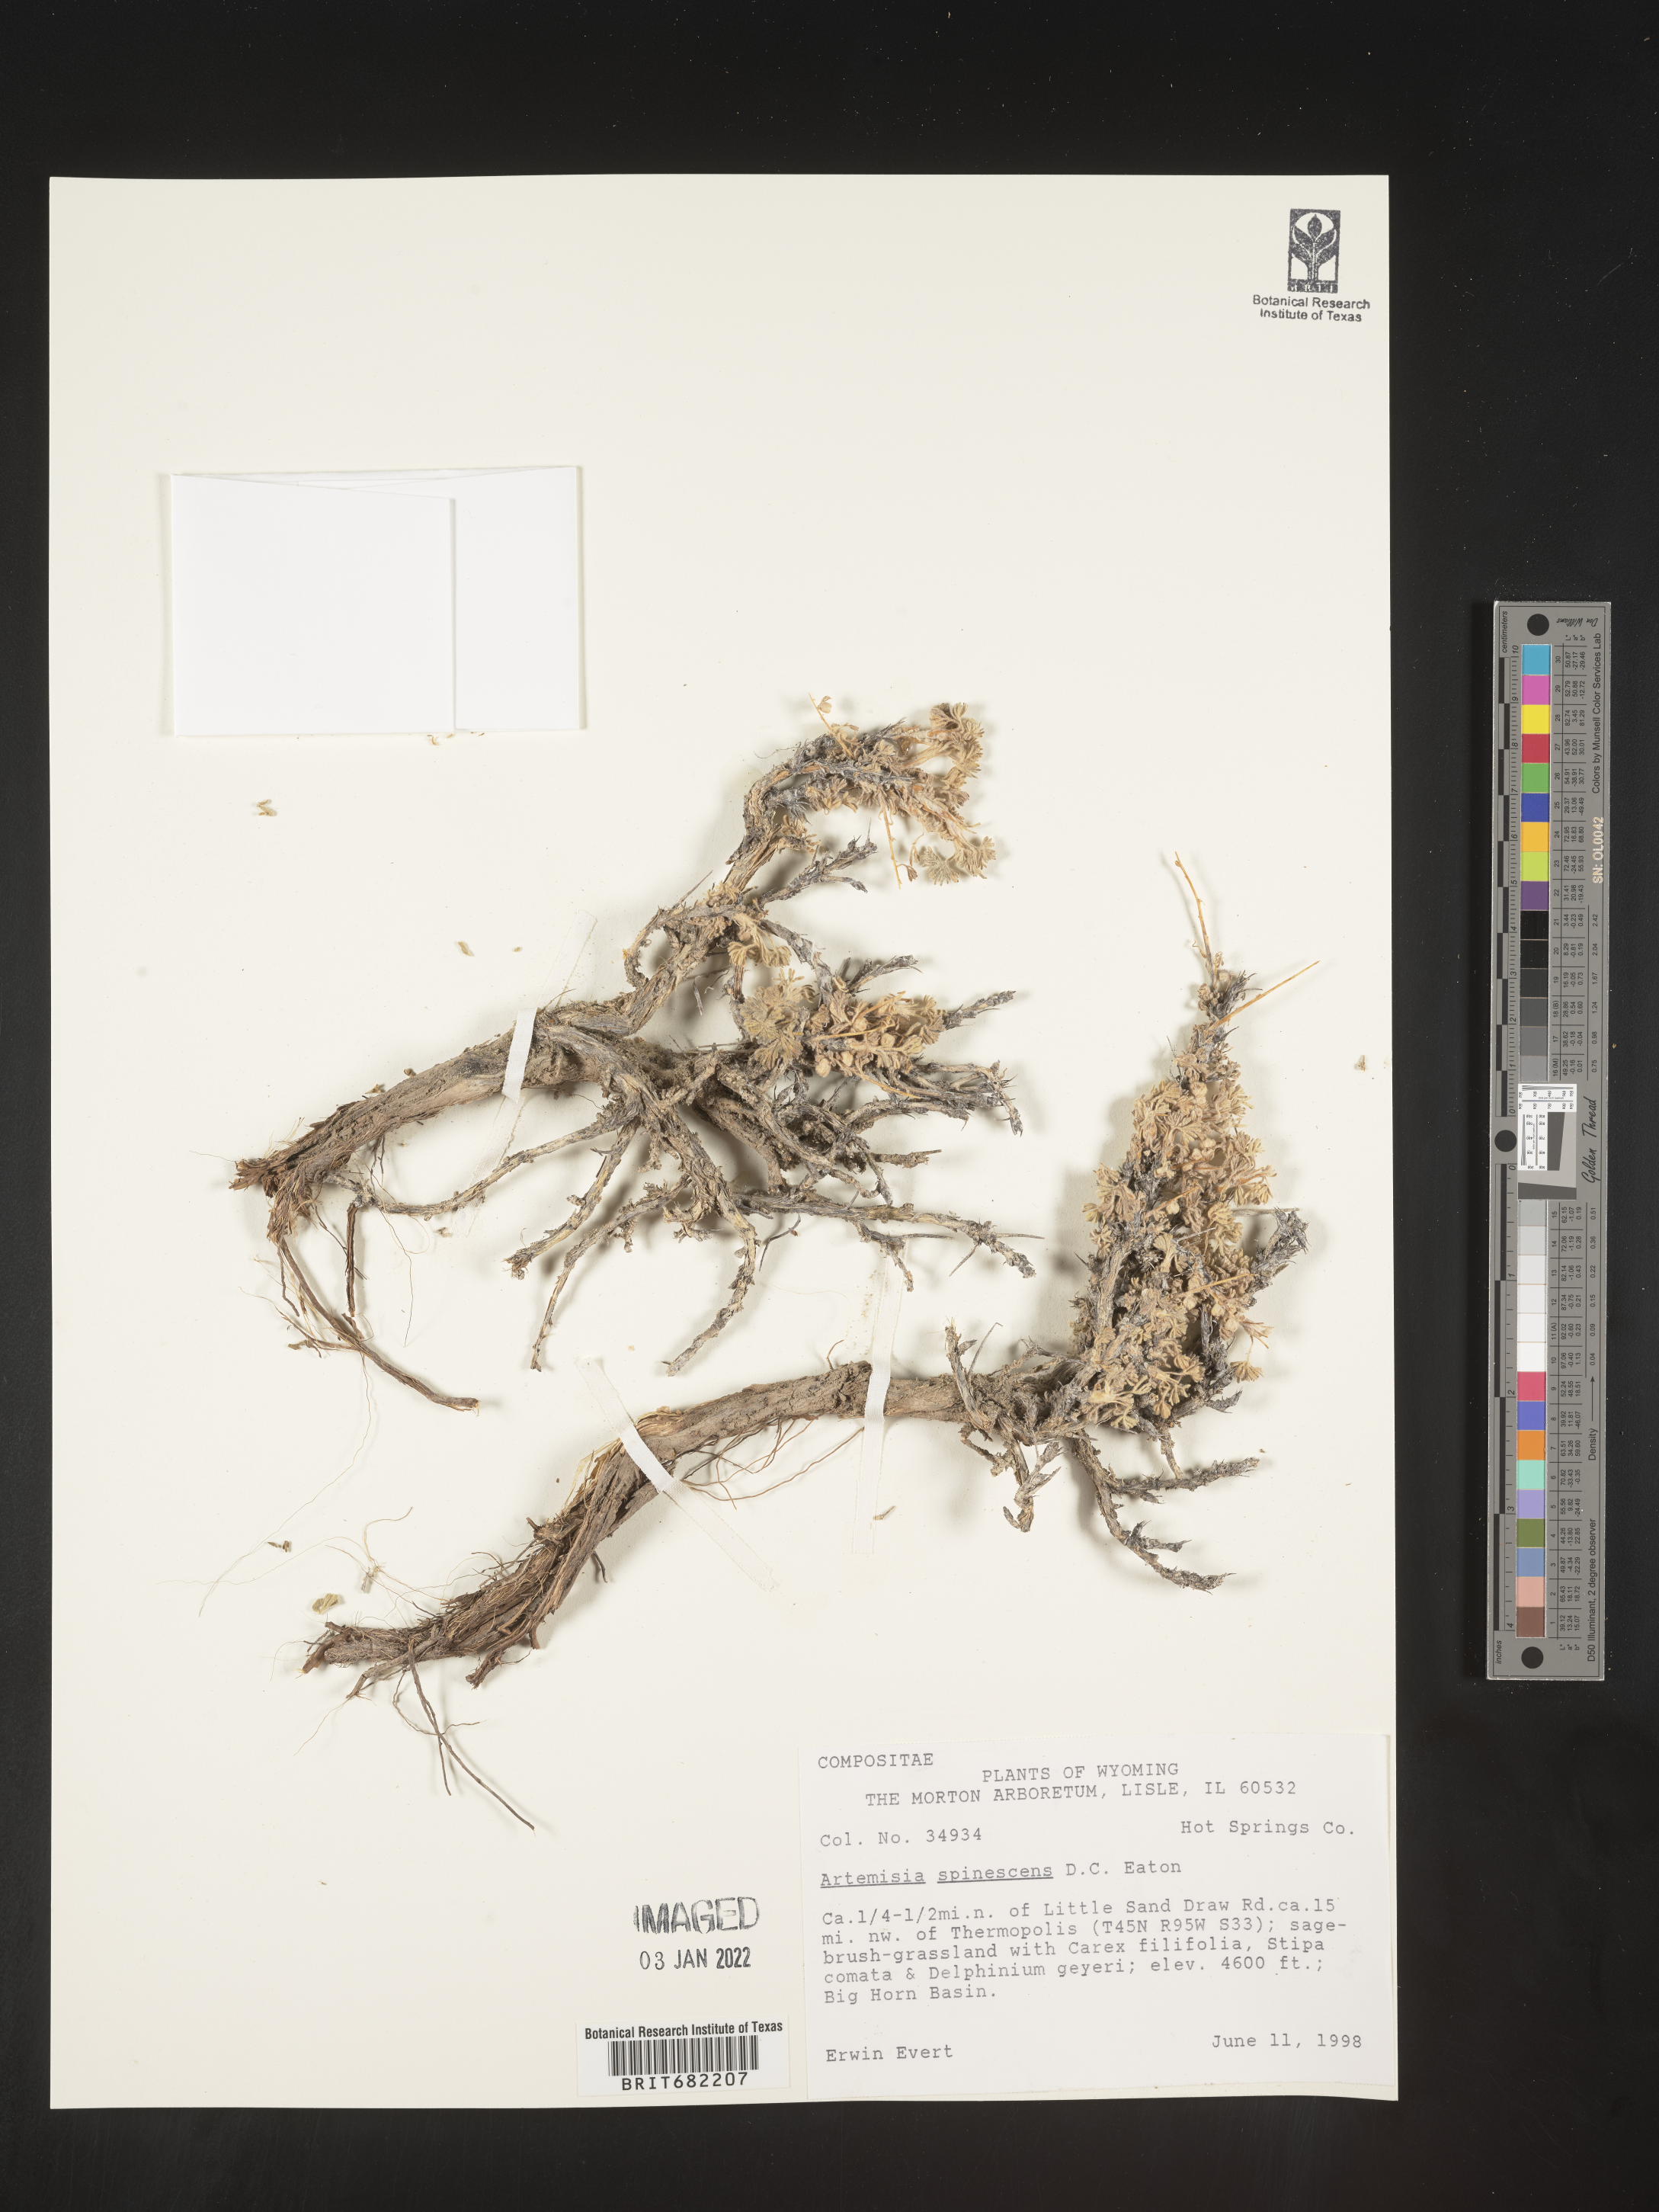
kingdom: Plantae
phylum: Tracheophyta
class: Magnoliopsida
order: Asterales
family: Asteraceae
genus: Artemisia
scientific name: Artemisia spinescens
